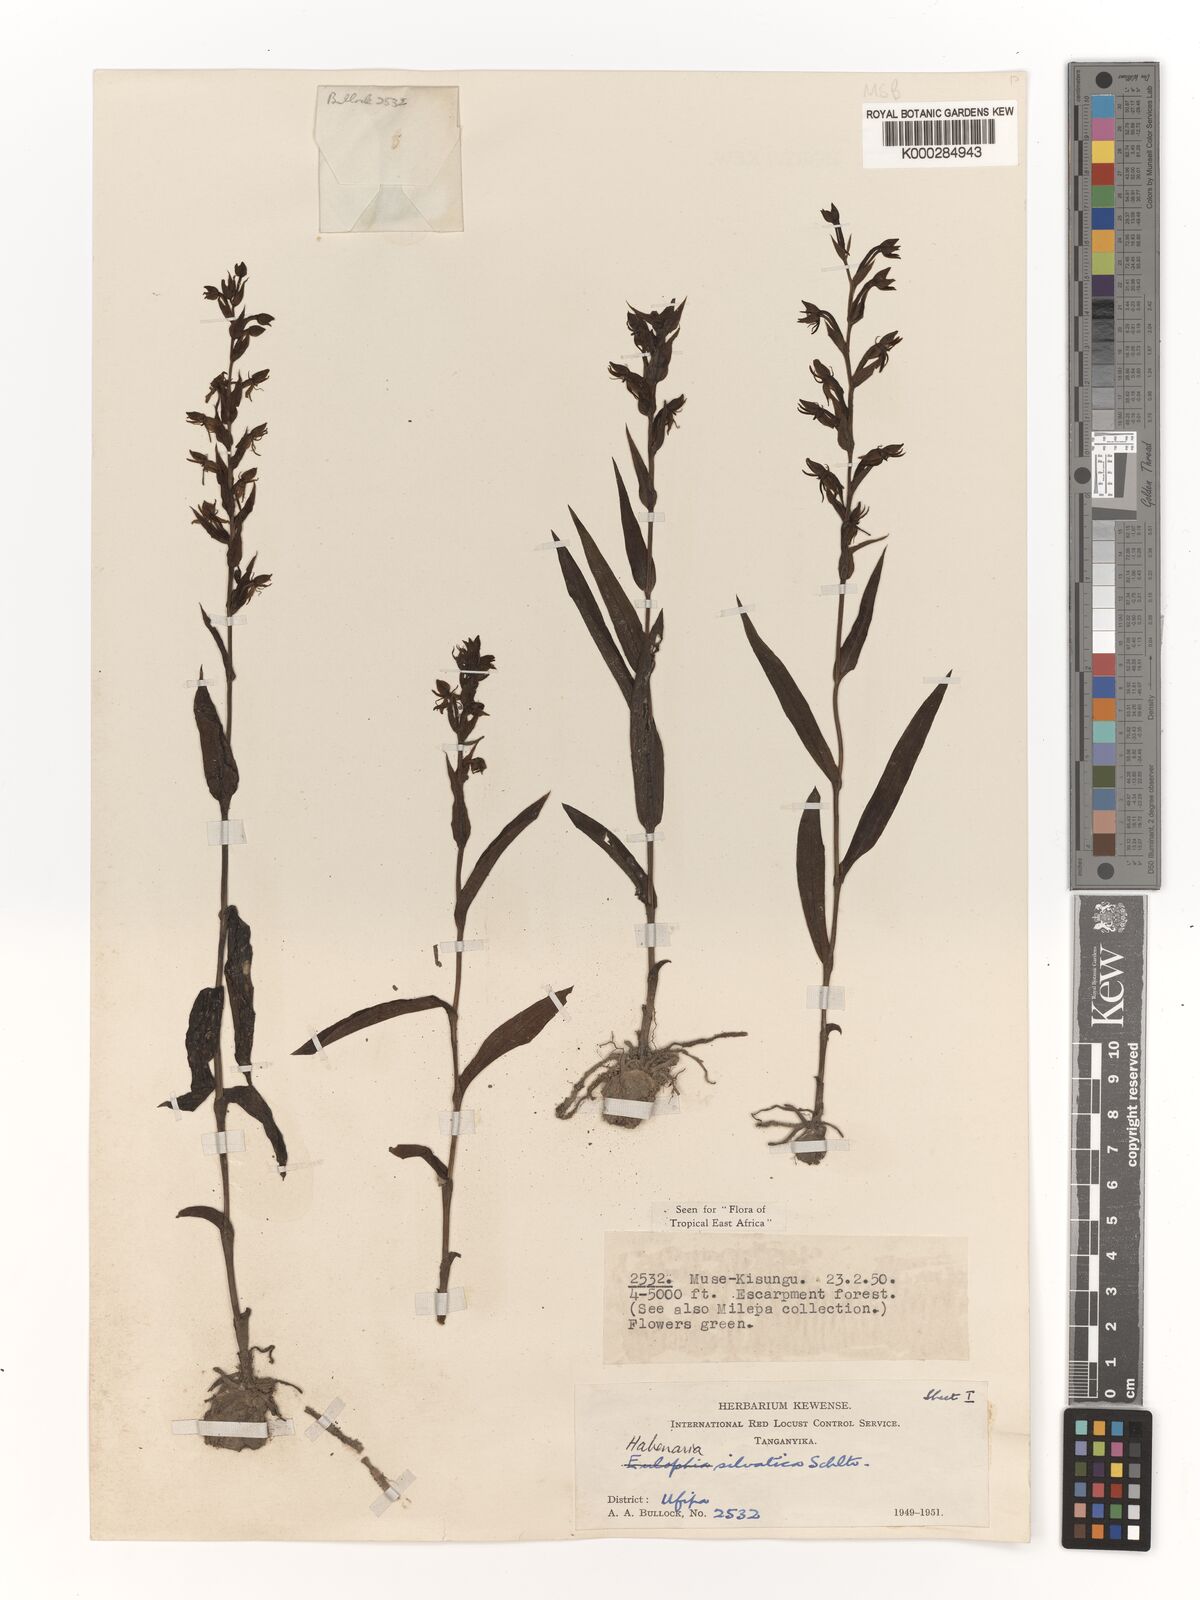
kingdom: Plantae
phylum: Tracheophyta
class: Liliopsida
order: Asparagales
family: Orchidaceae
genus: Habenaria
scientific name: Habenaria silvatica
